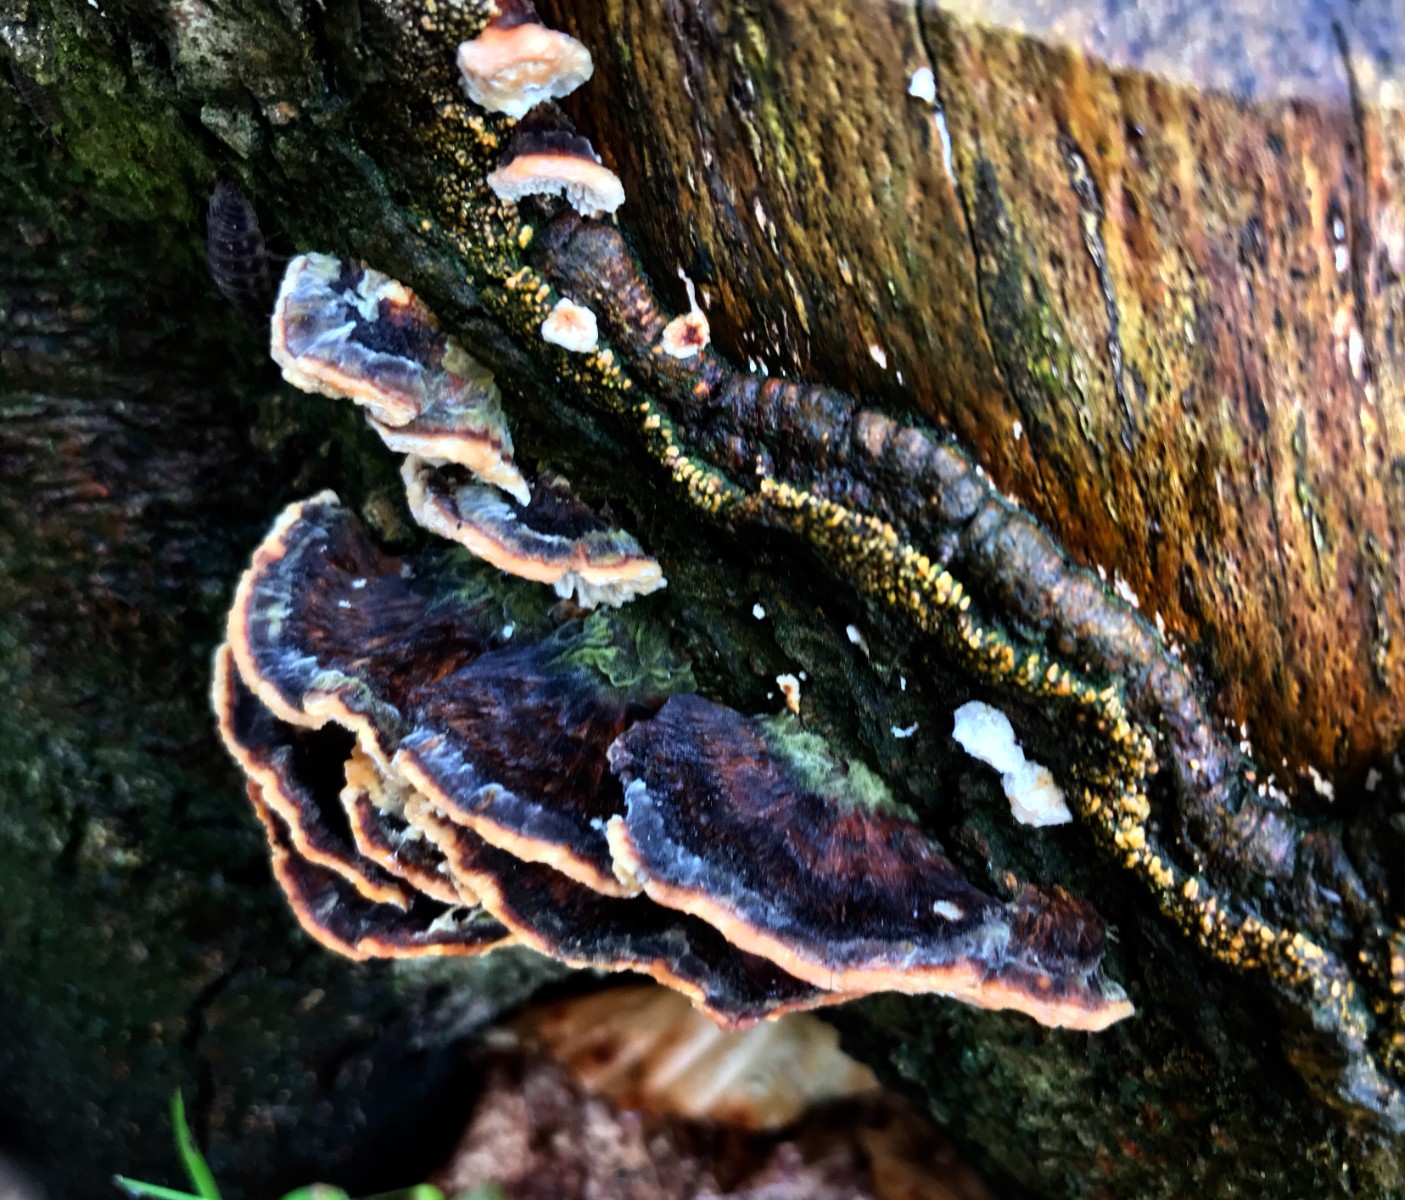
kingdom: Fungi
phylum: Basidiomycota
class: Agaricomycetes
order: Polyporales
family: Polyporaceae
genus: Trametes
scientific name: Trametes versicolor
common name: broget læderporesvamp
